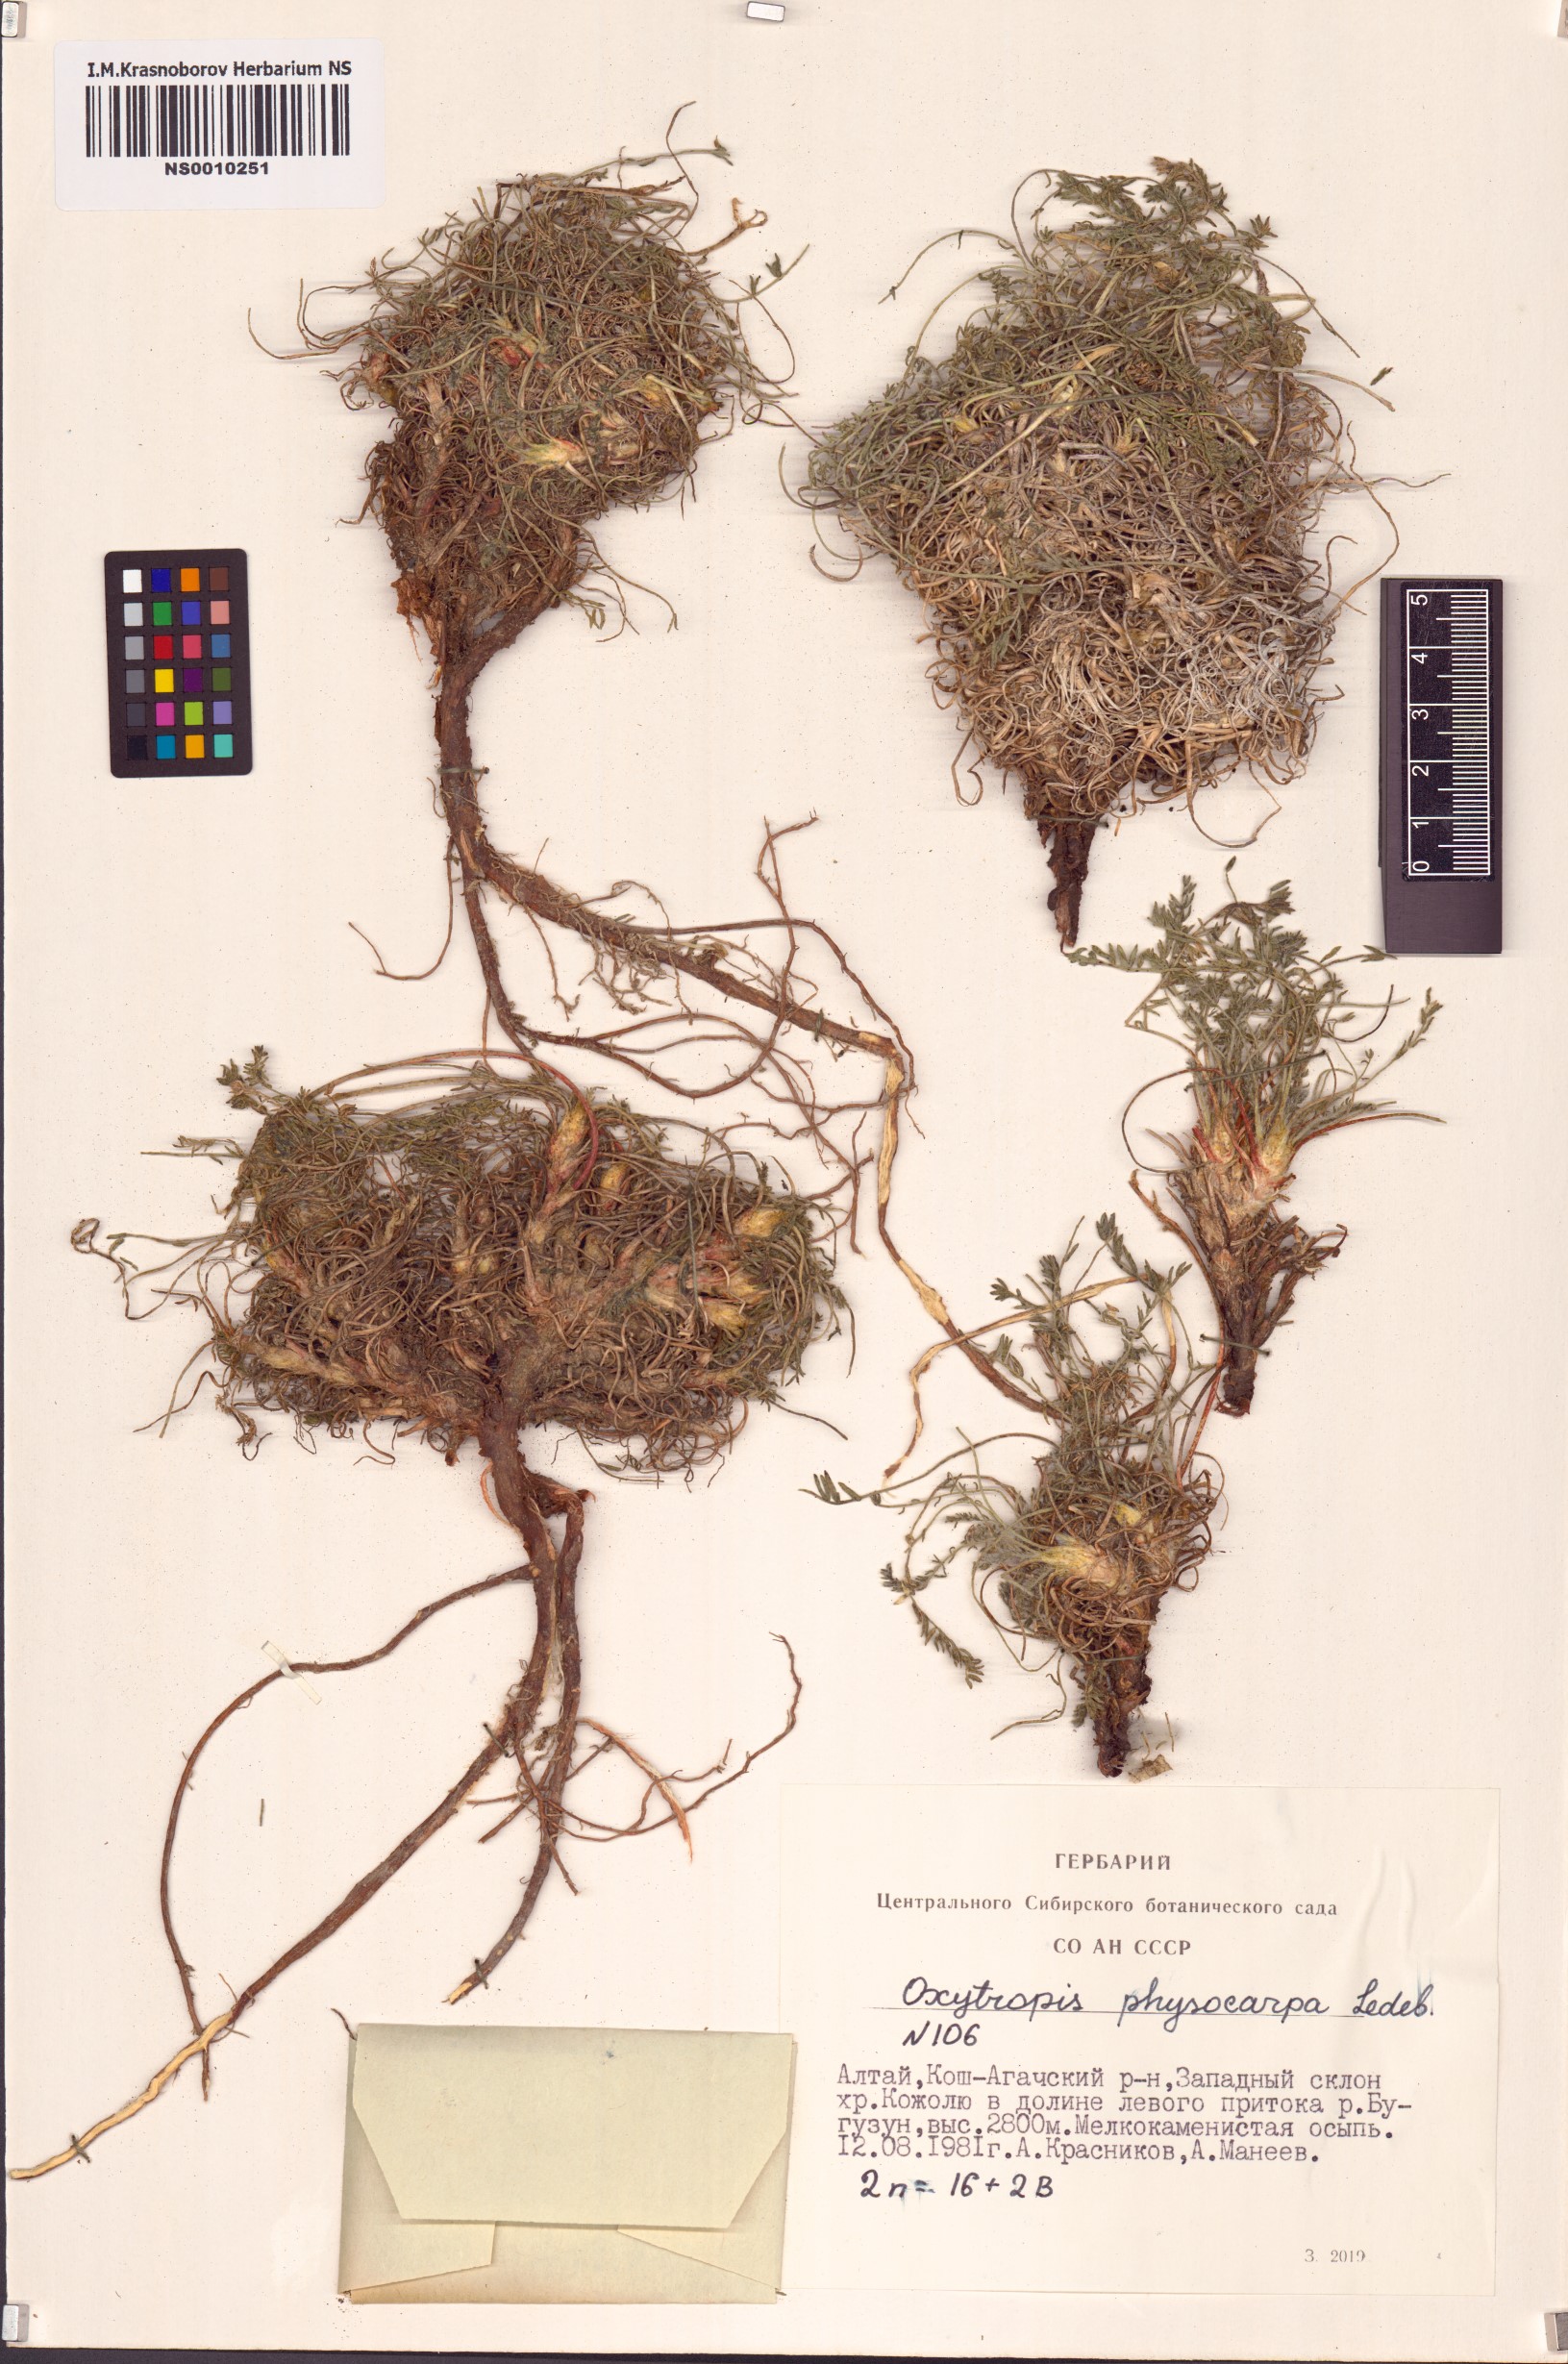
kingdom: Plantae
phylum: Tracheophyta
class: Magnoliopsida
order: Fabales
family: Fabaceae
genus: Oxytropis
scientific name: Oxytropis physocarpa
